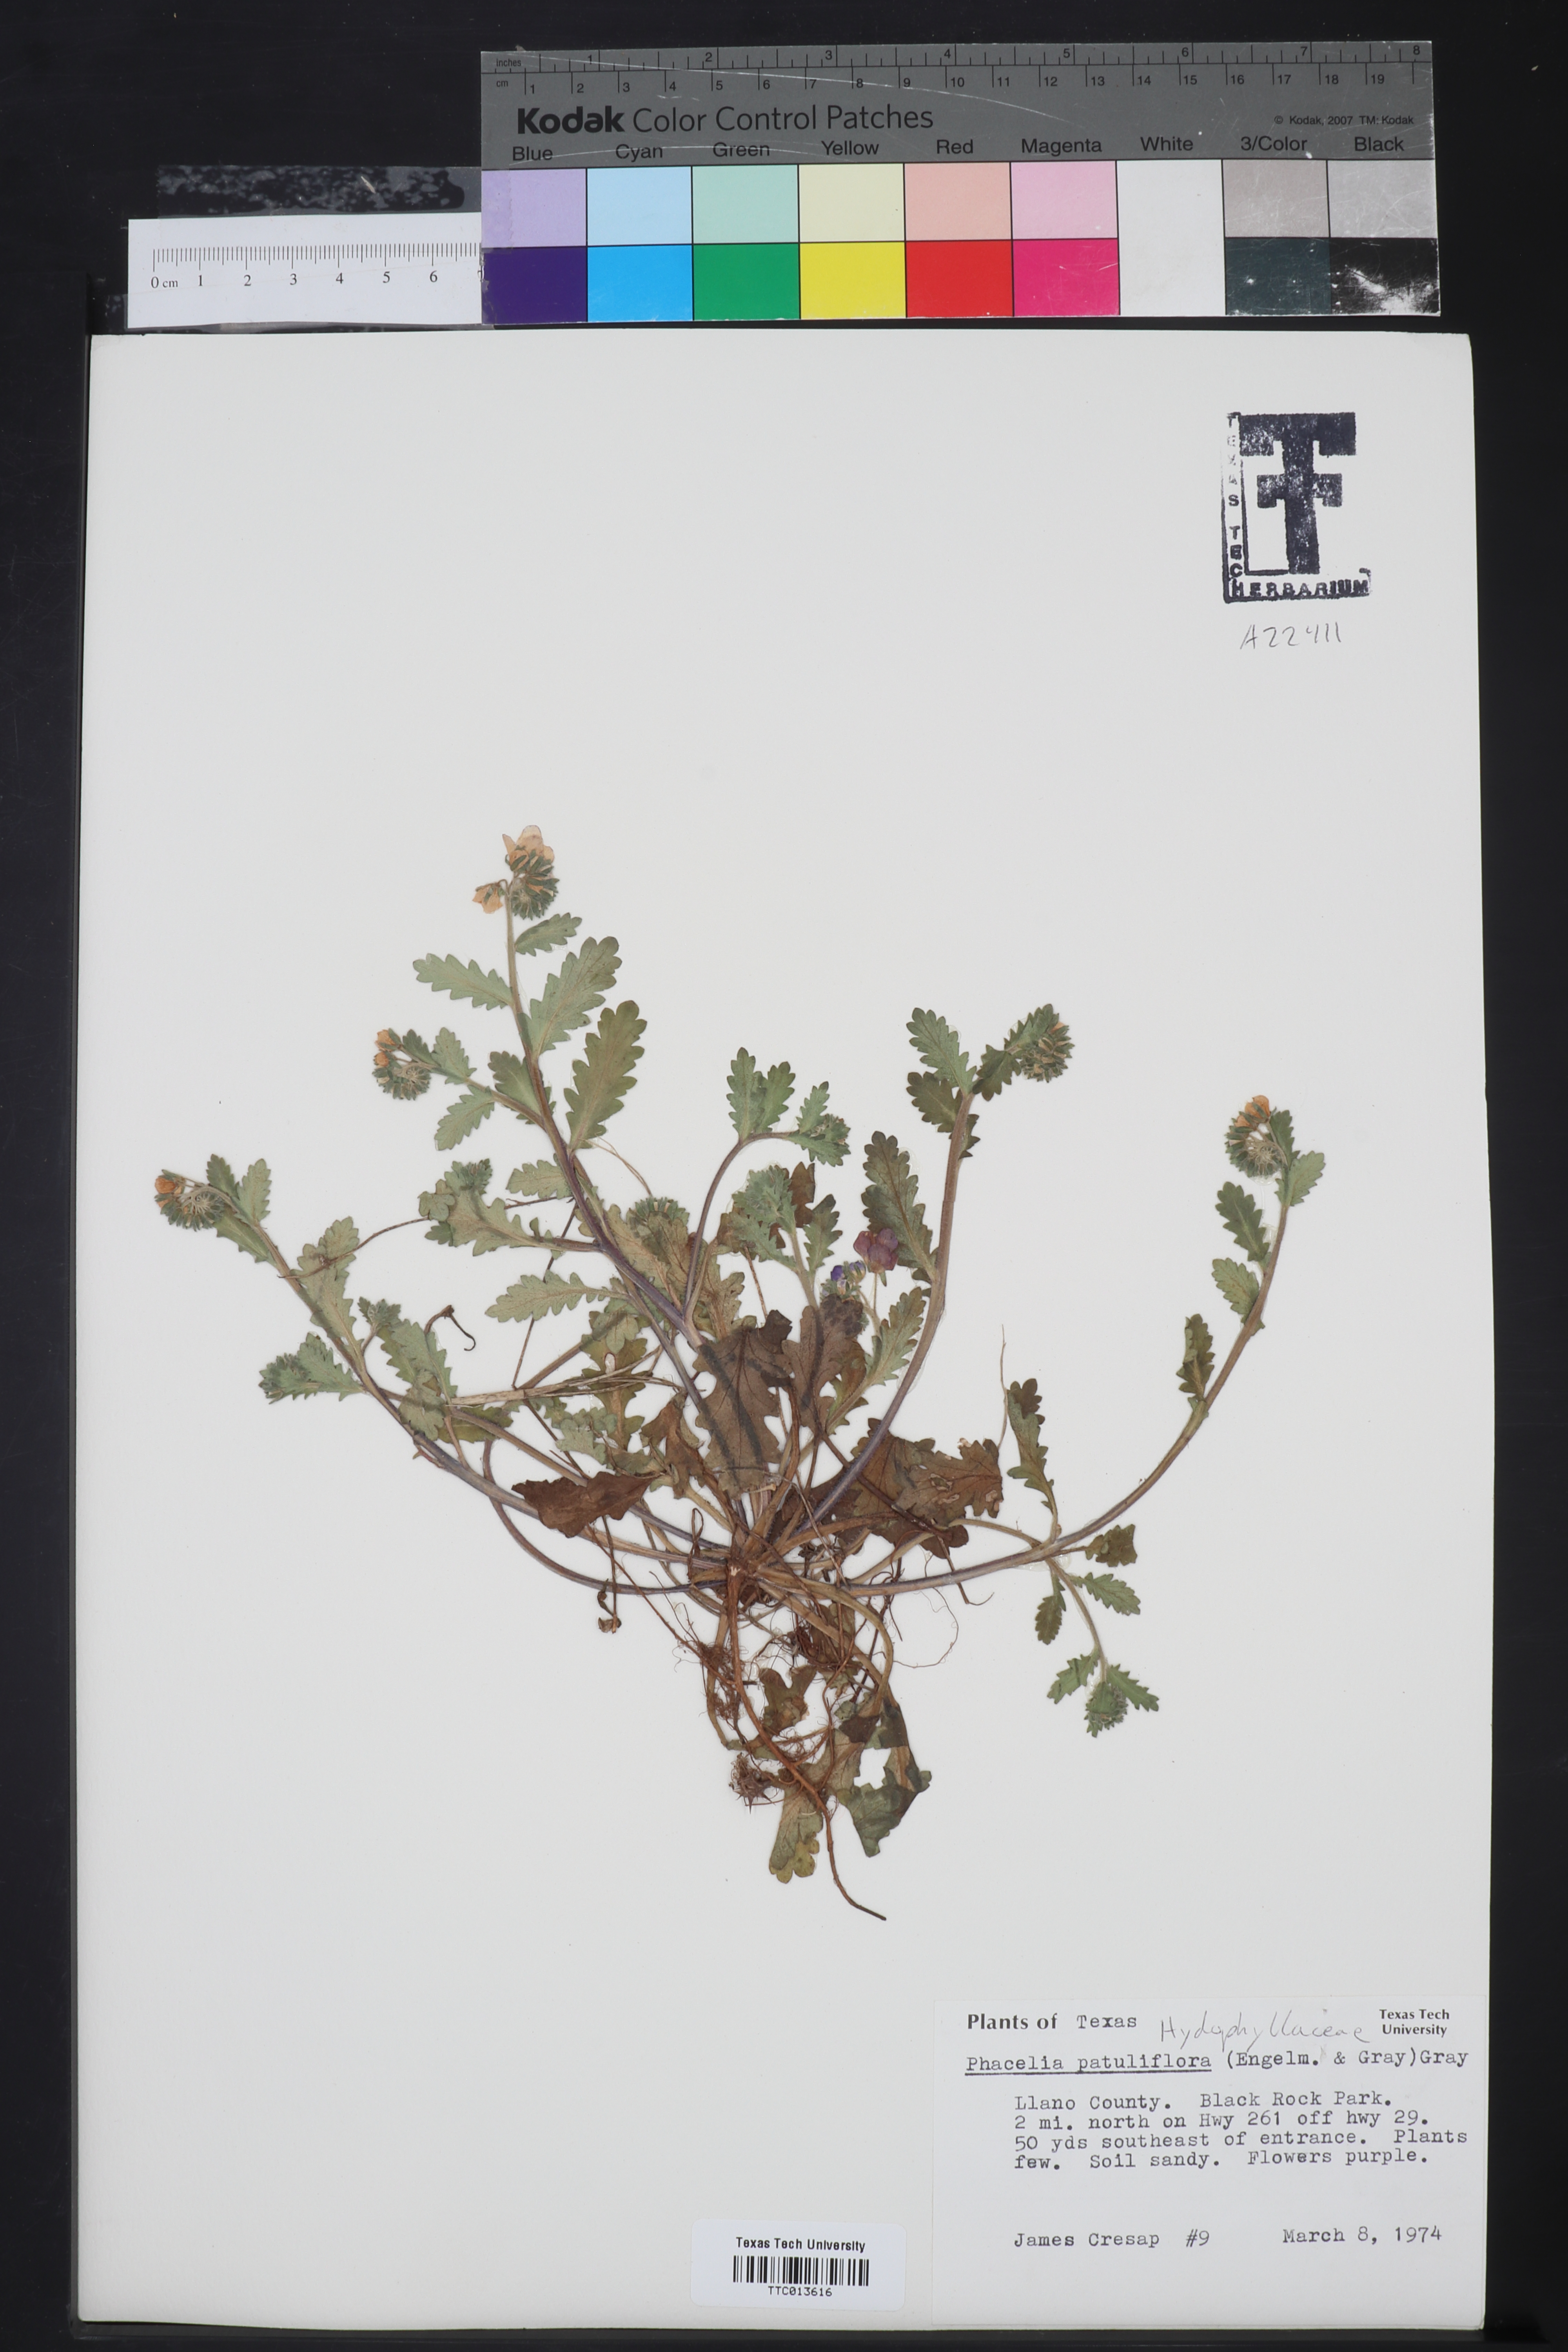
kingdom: Plantae
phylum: Tracheophyta
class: Magnoliopsida
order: Boraginales
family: Hydrophyllaceae
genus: Phacelia
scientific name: Phacelia patuliflora
